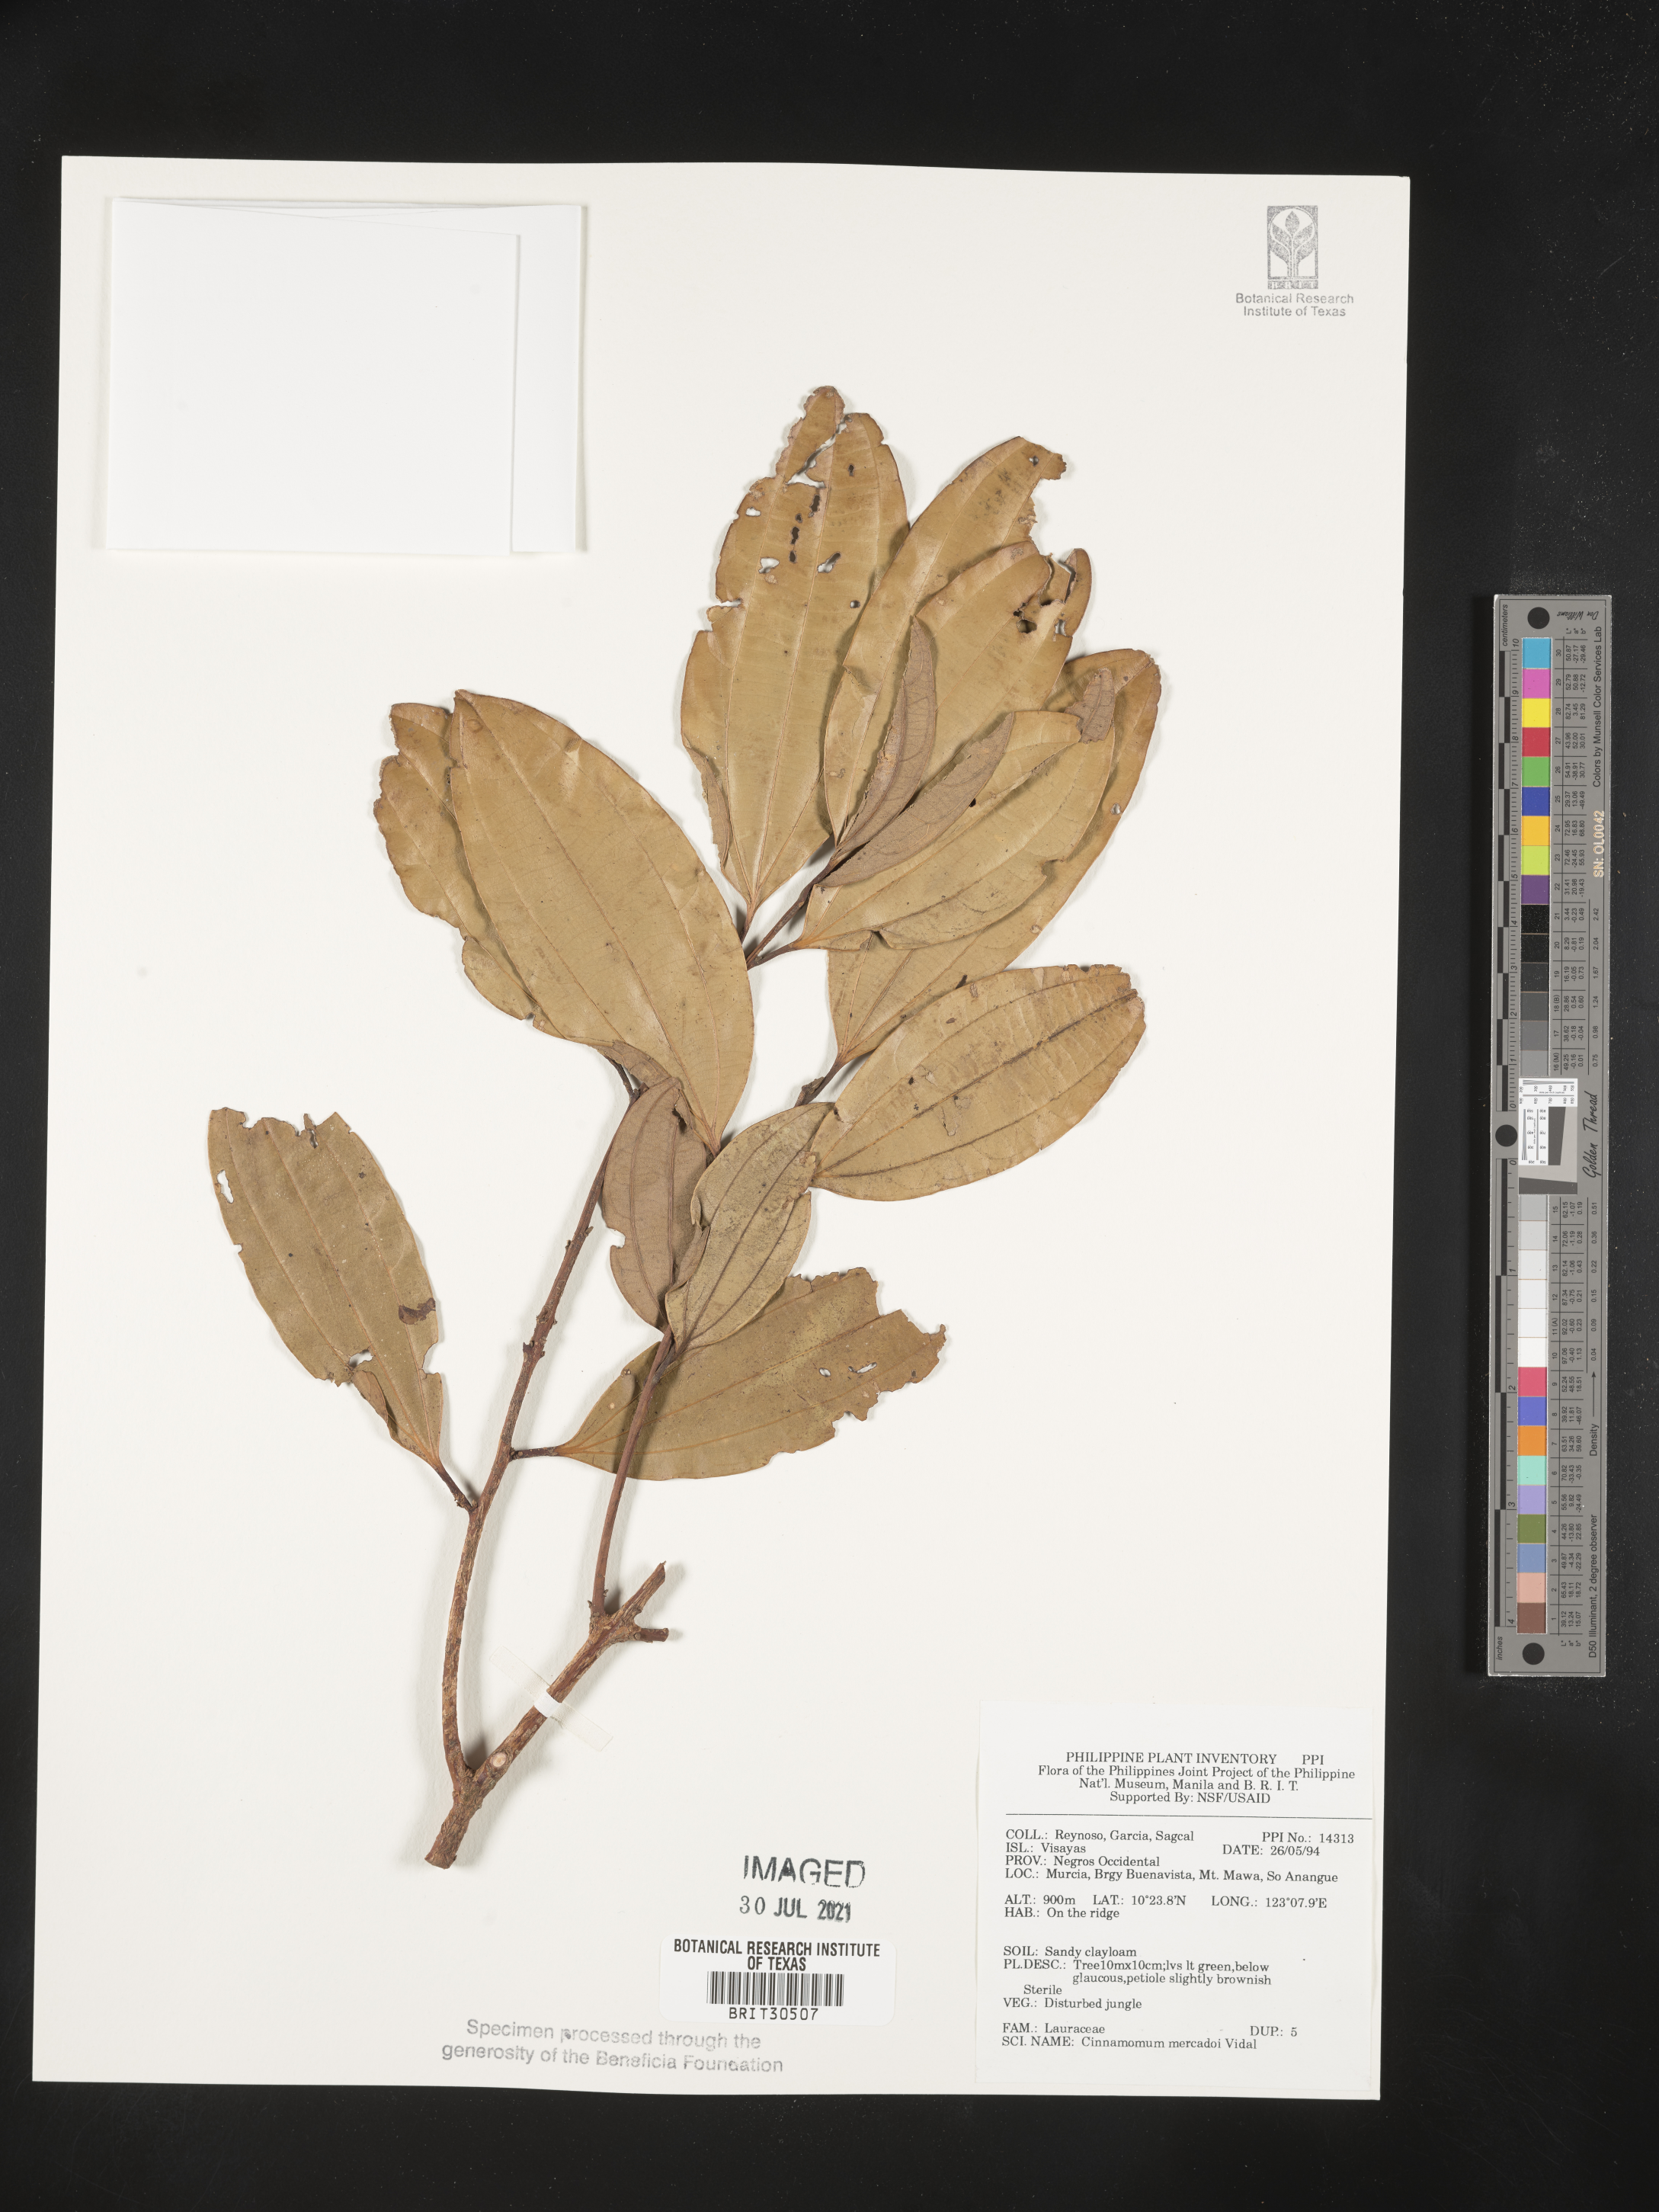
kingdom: Plantae
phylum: Tracheophyta
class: Magnoliopsida
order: Laurales
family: Lauraceae
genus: Cinnamomum
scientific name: Cinnamomum mercadoi
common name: Cinamomon
